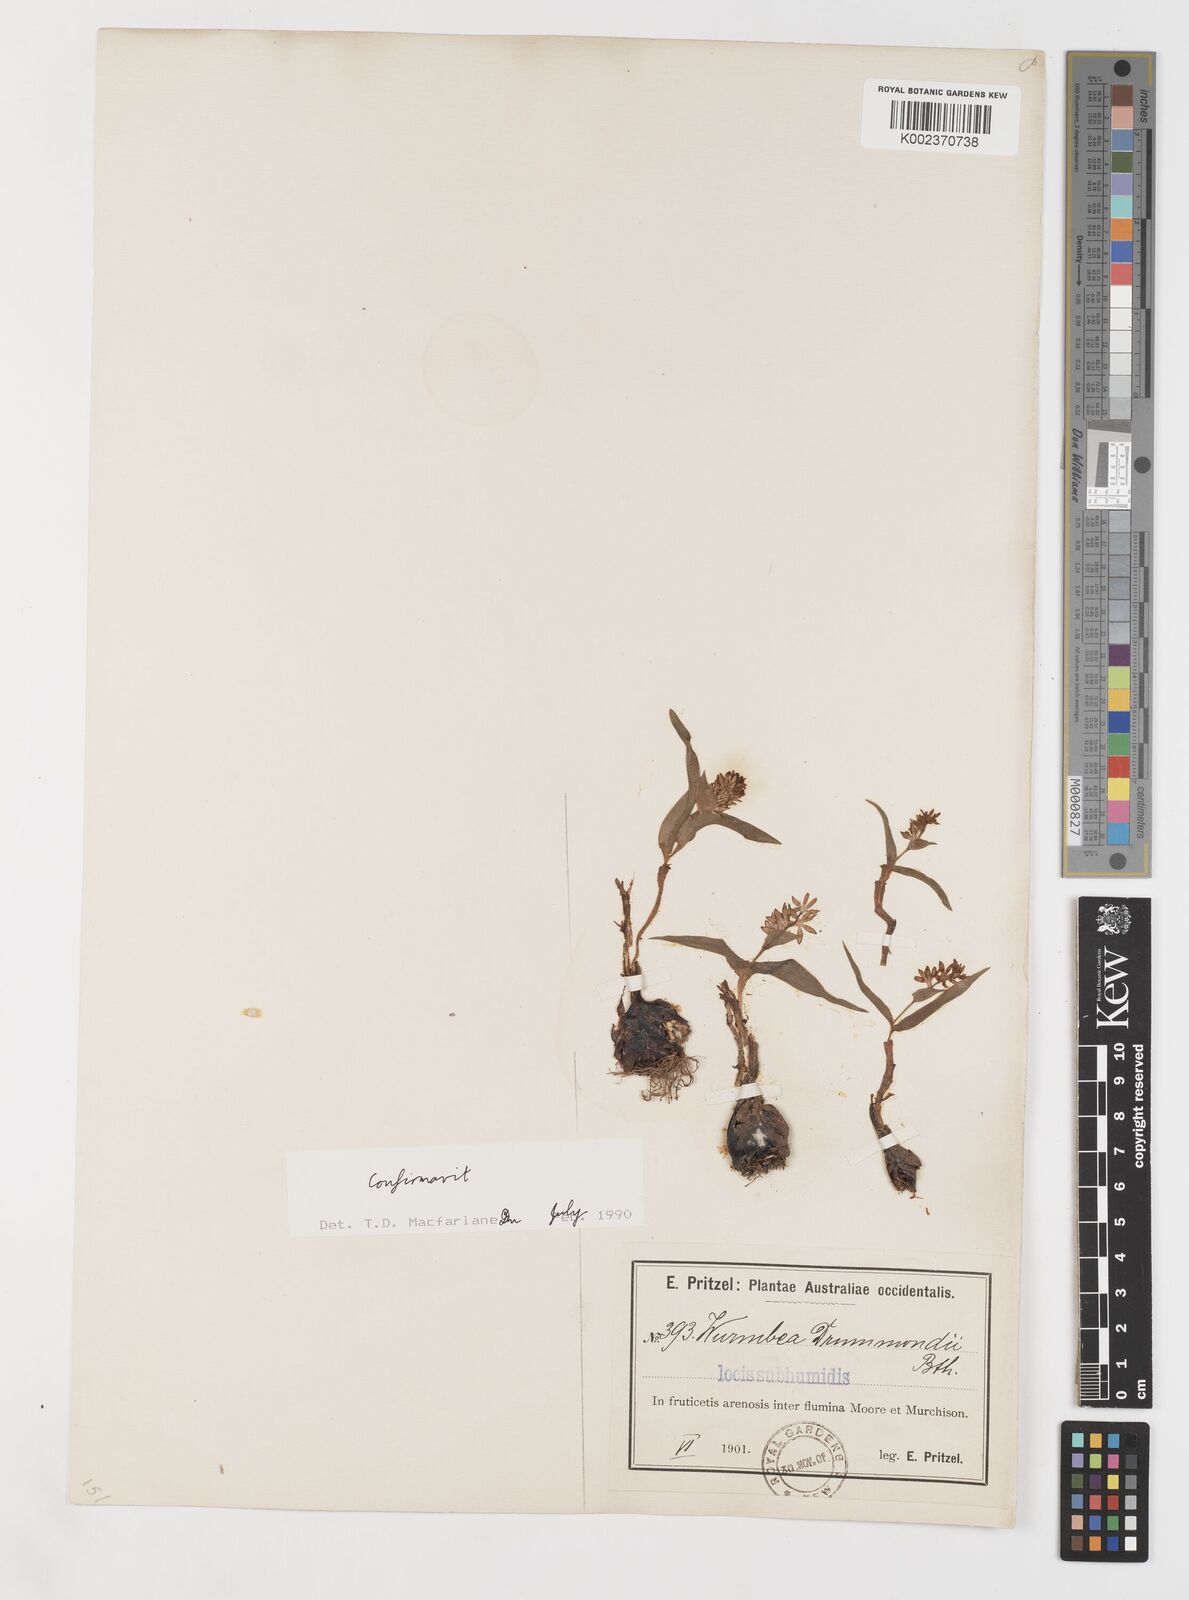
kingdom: Plantae
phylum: Tracheophyta
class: Liliopsida
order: Liliales
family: Colchicaceae
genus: Wurmbea
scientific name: Wurmbea drummondii
